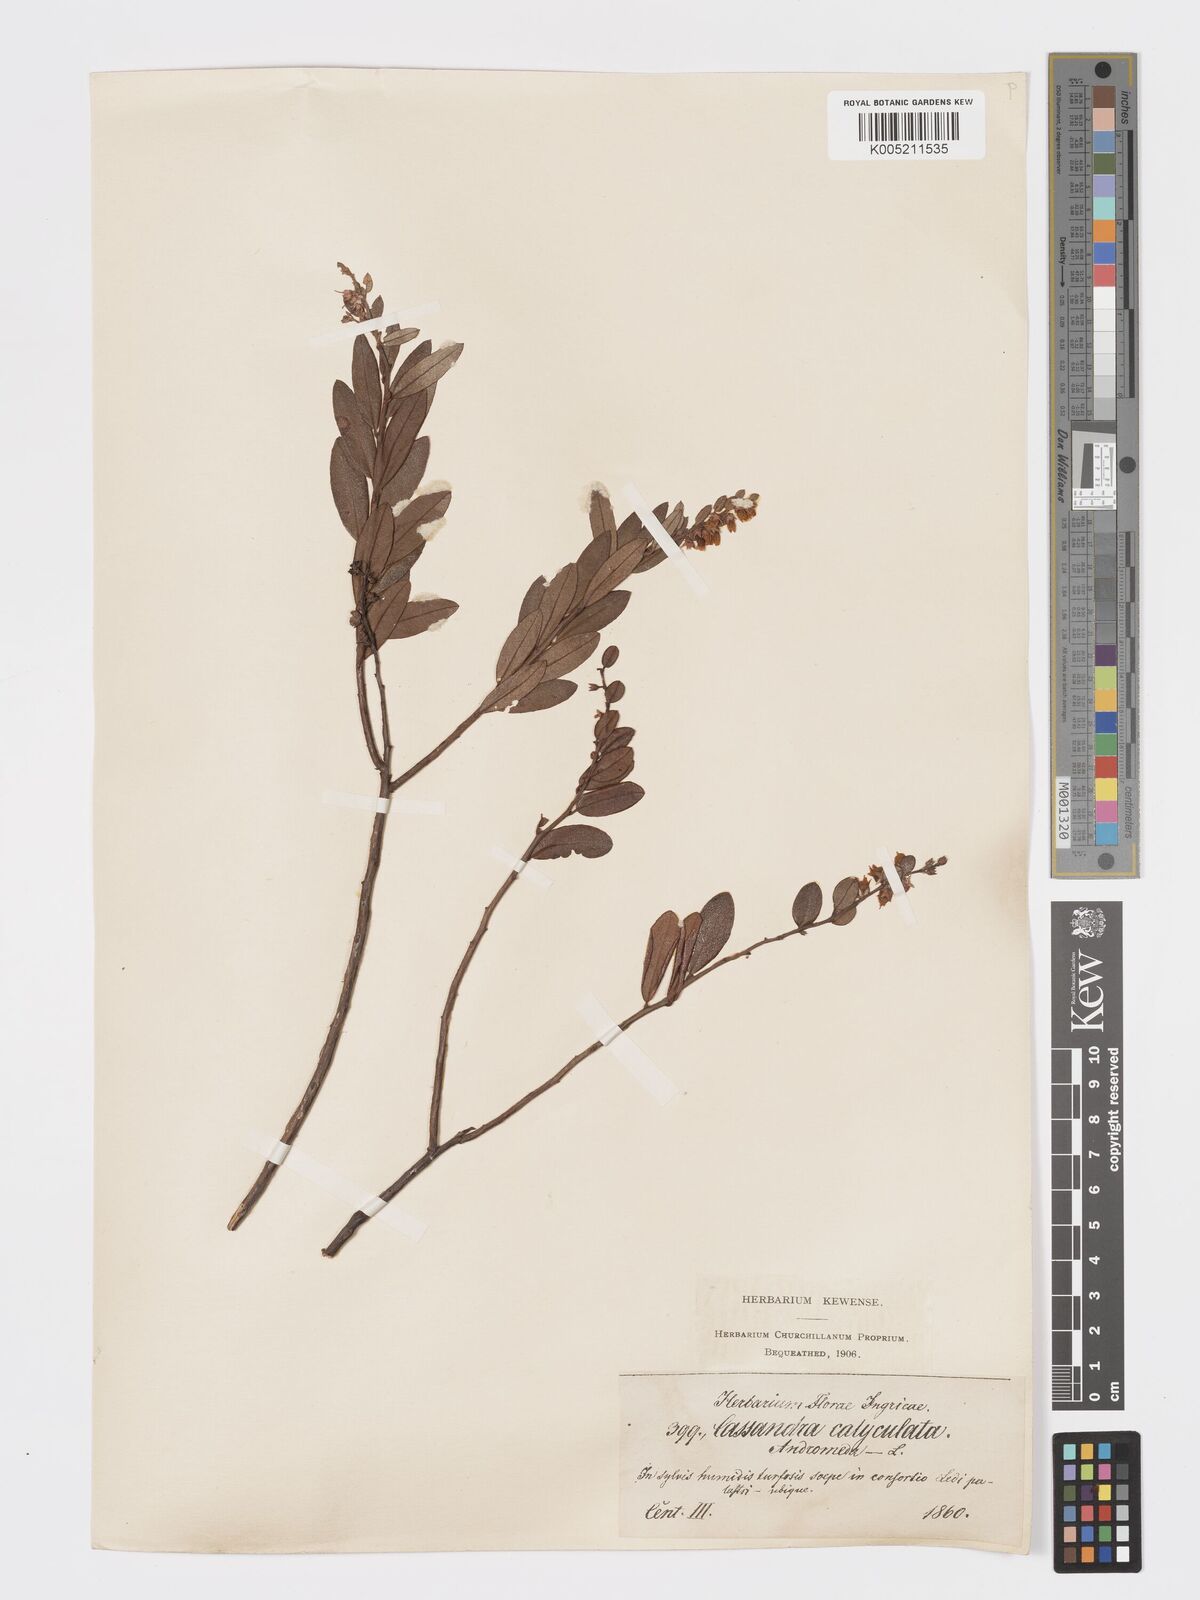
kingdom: Plantae
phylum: Tracheophyta
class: Magnoliopsida
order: Ericales
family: Ericaceae
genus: Chamaedaphne
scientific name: Chamaedaphne calyculata
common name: Leatherleaf
